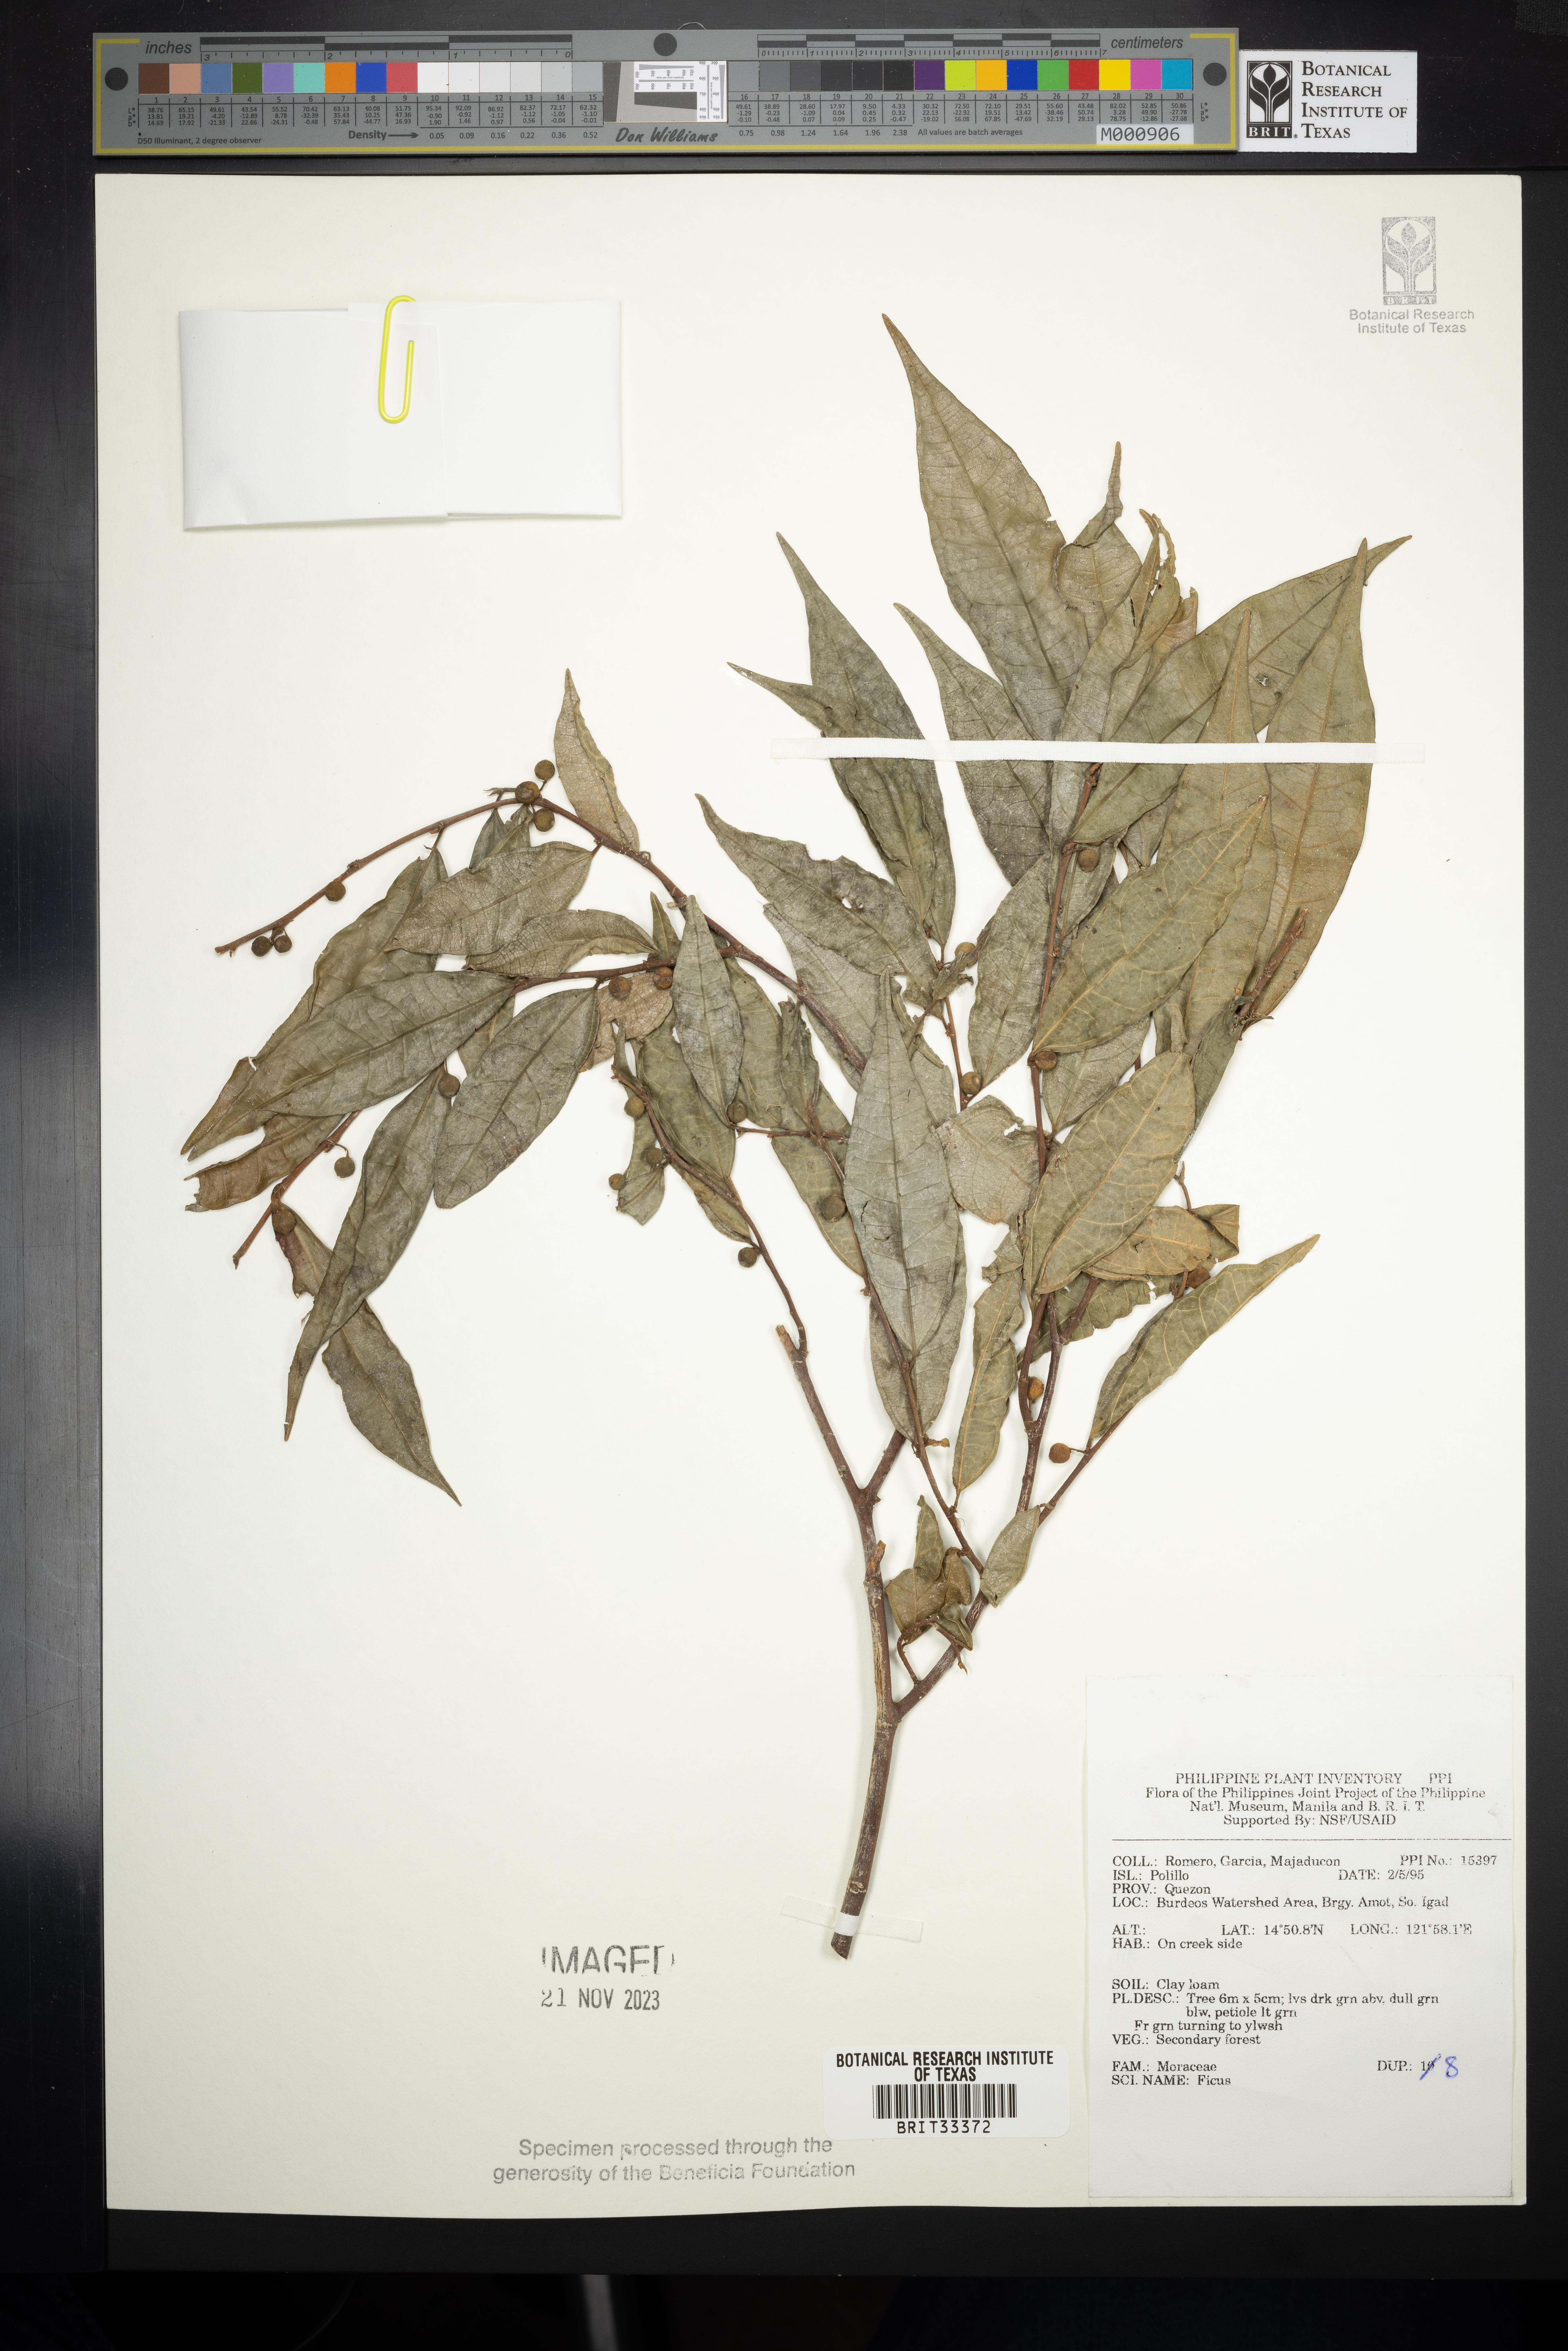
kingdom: Plantae
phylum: Tracheophyta
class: Magnoliopsida
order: Rosales
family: Moraceae
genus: Ficus
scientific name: Ficus
